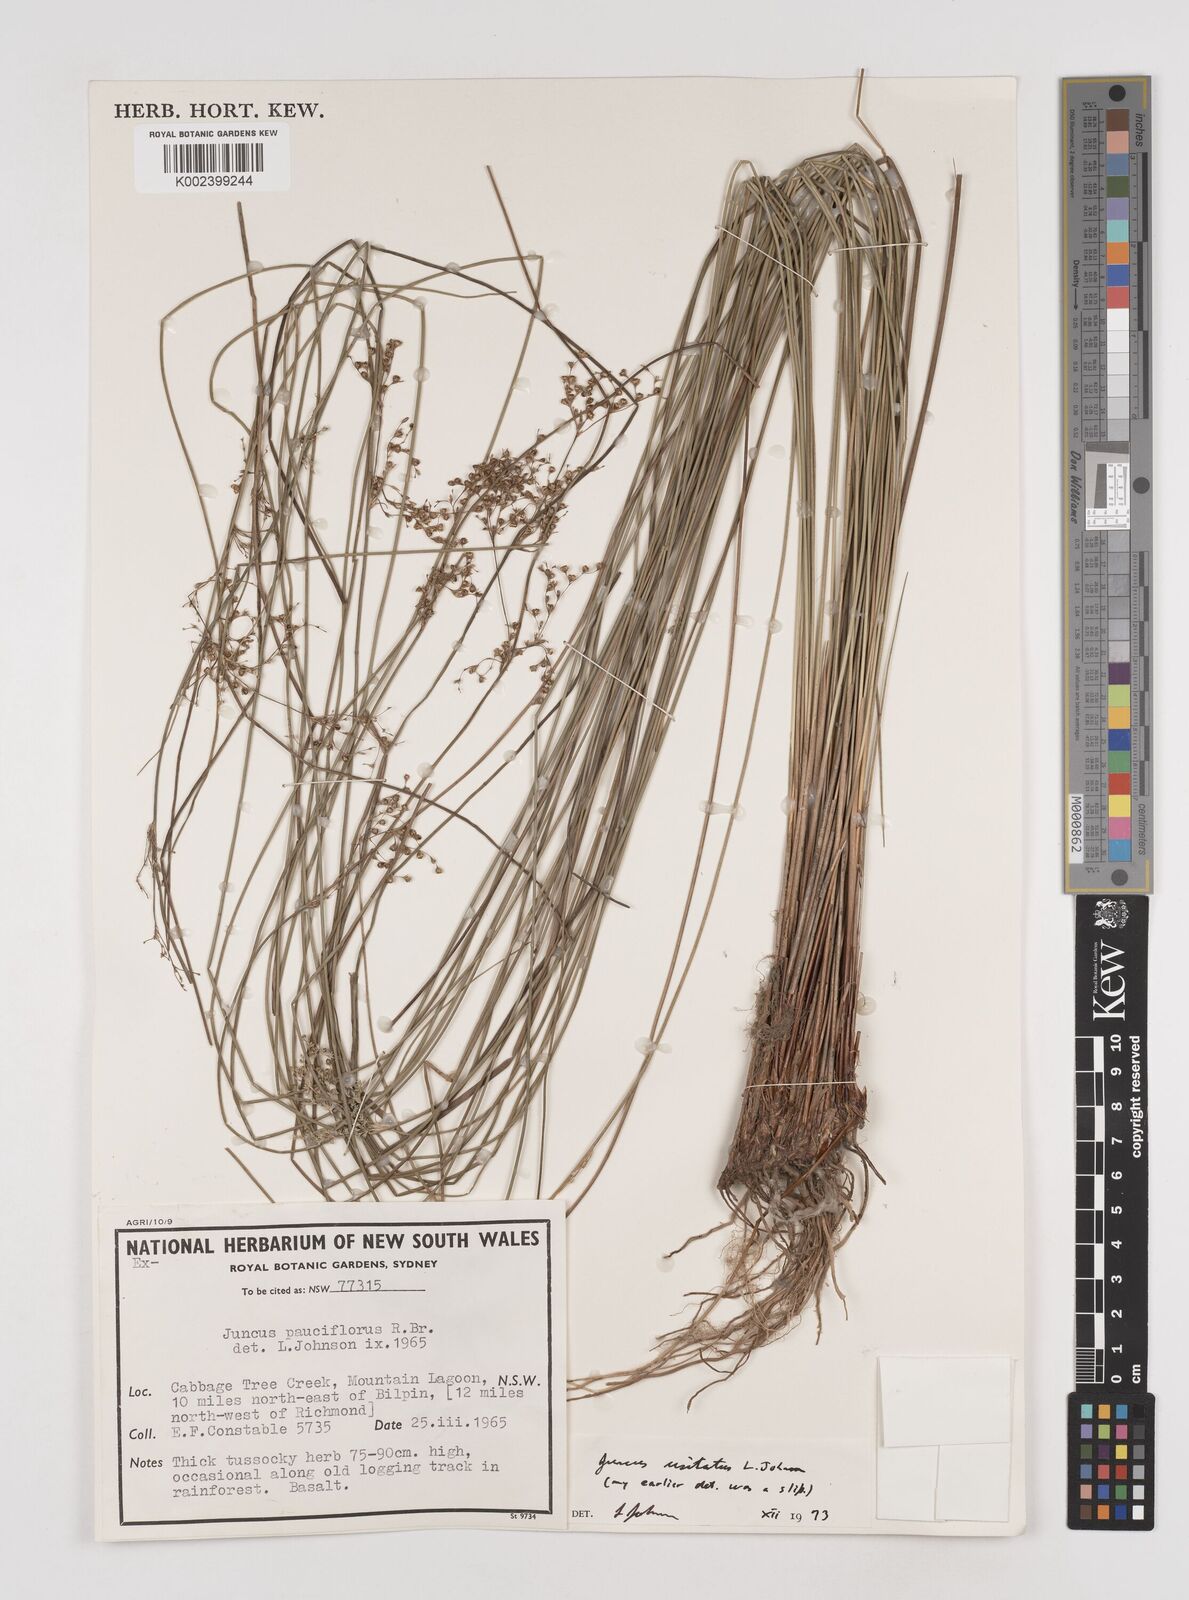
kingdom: Plantae
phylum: Tracheophyta
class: Liliopsida
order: Poales
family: Juncaceae
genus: Juncus
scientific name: Juncus usitatus
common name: Rush
